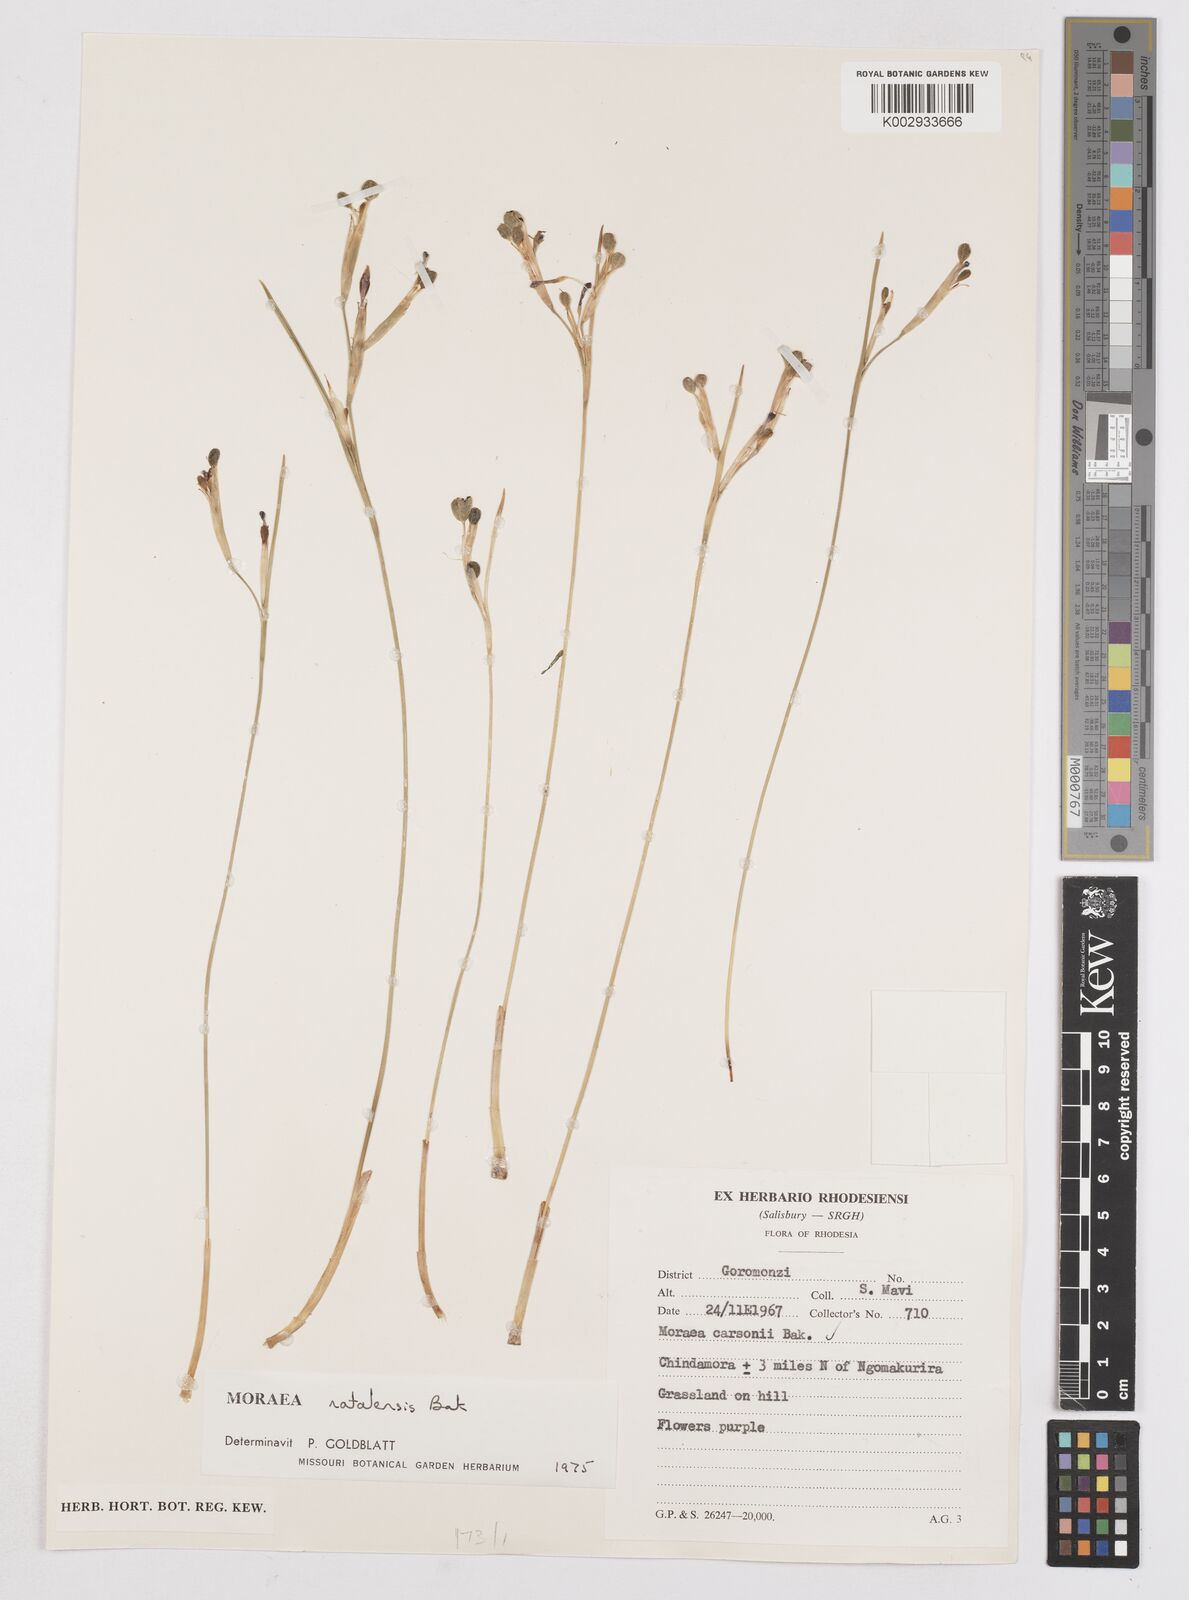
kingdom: Plantae
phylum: Tracheophyta
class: Liliopsida
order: Asparagales
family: Iridaceae
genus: Moraea
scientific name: Moraea natalensis
